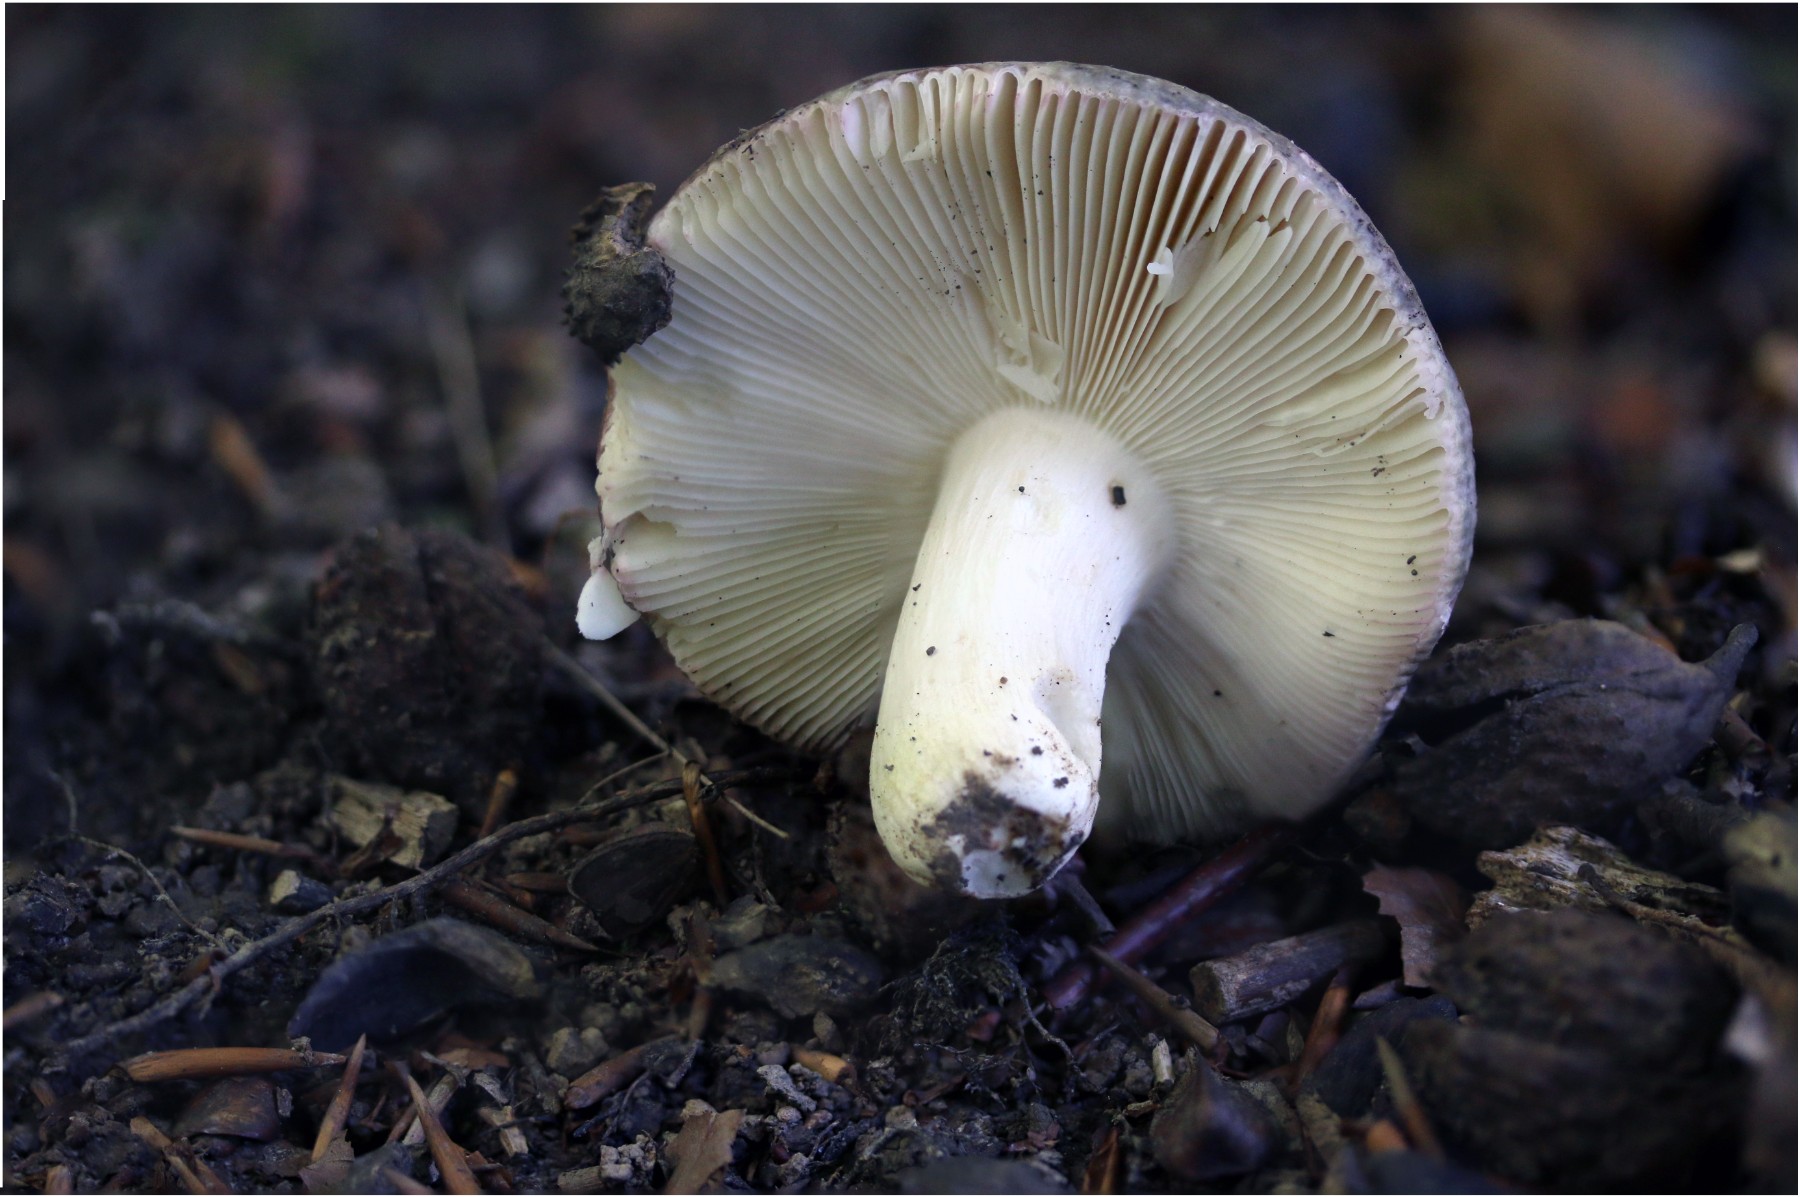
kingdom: Fungi
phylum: Basidiomycota
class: Agaricomycetes
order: Russulales
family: Russulaceae
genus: Russula
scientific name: Russula ionochlora
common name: violetgrøn skørhat
